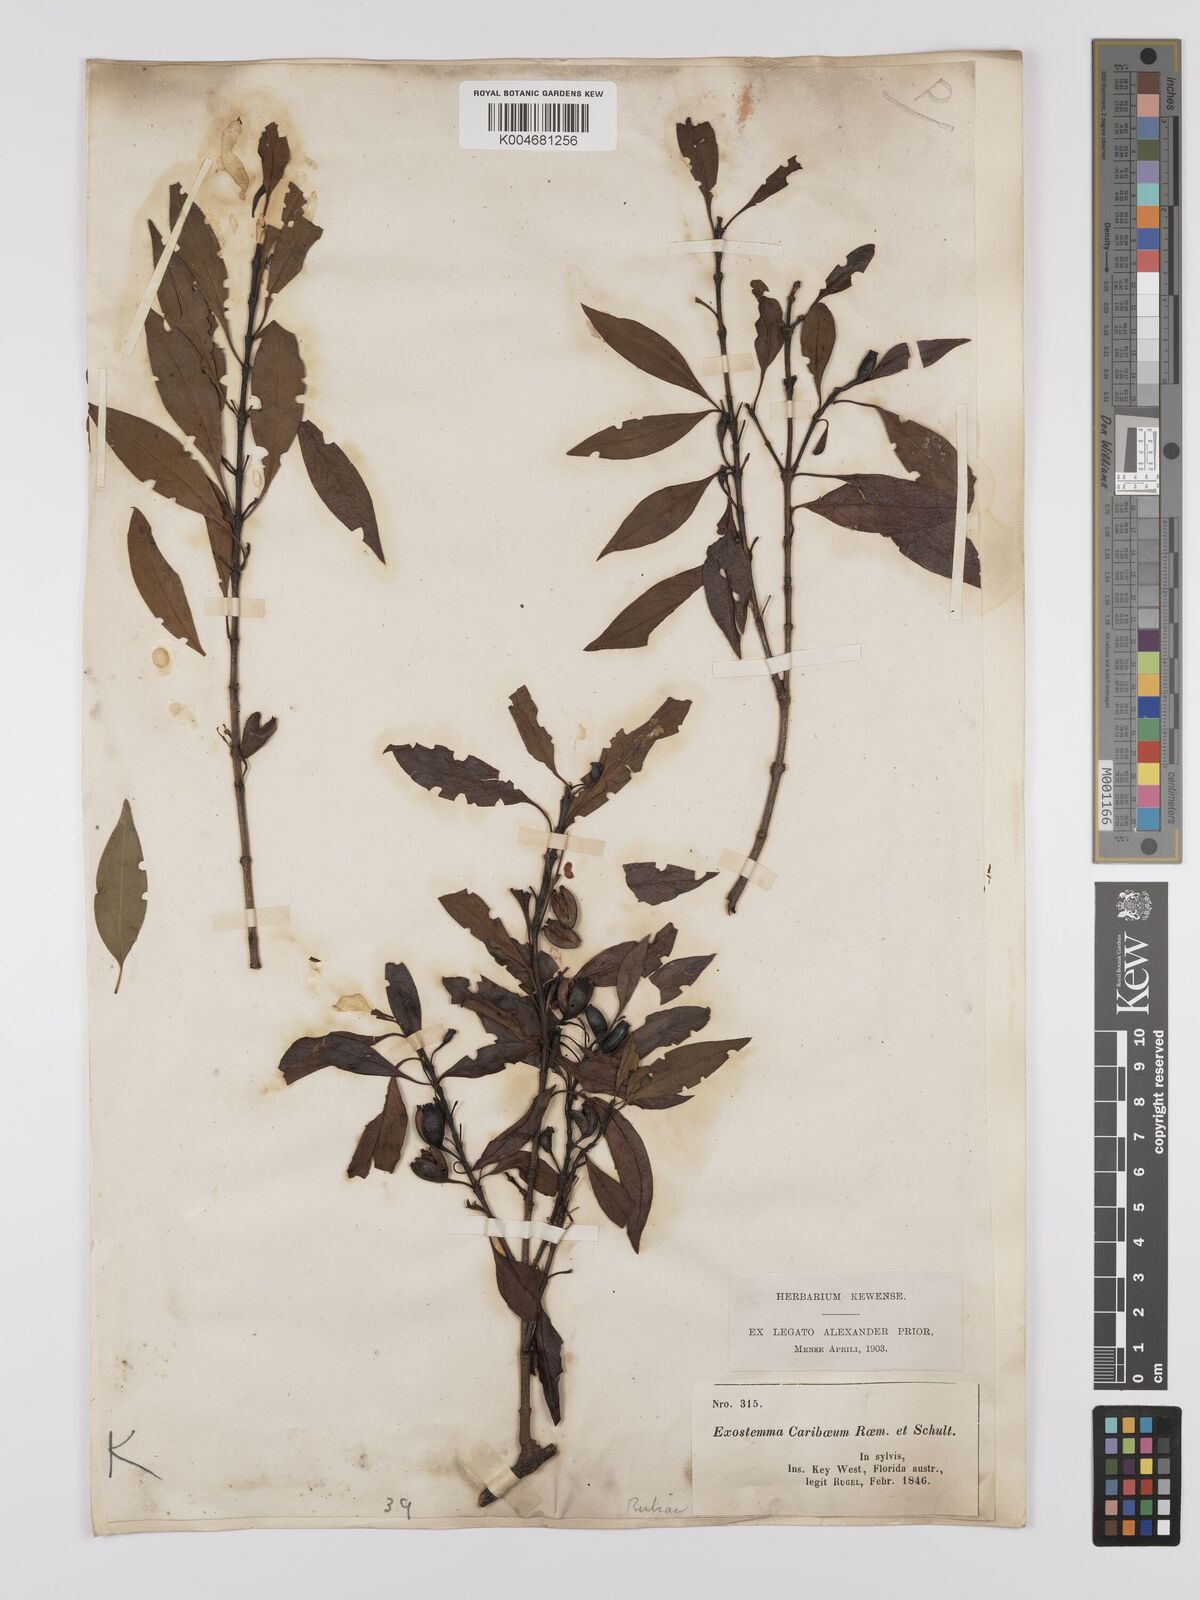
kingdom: Plantae
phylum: Tracheophyta
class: Magnoliopsida
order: Gentianales
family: Rubiaceae
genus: Exostema
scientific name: Exostema caribaeum
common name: Princewood
